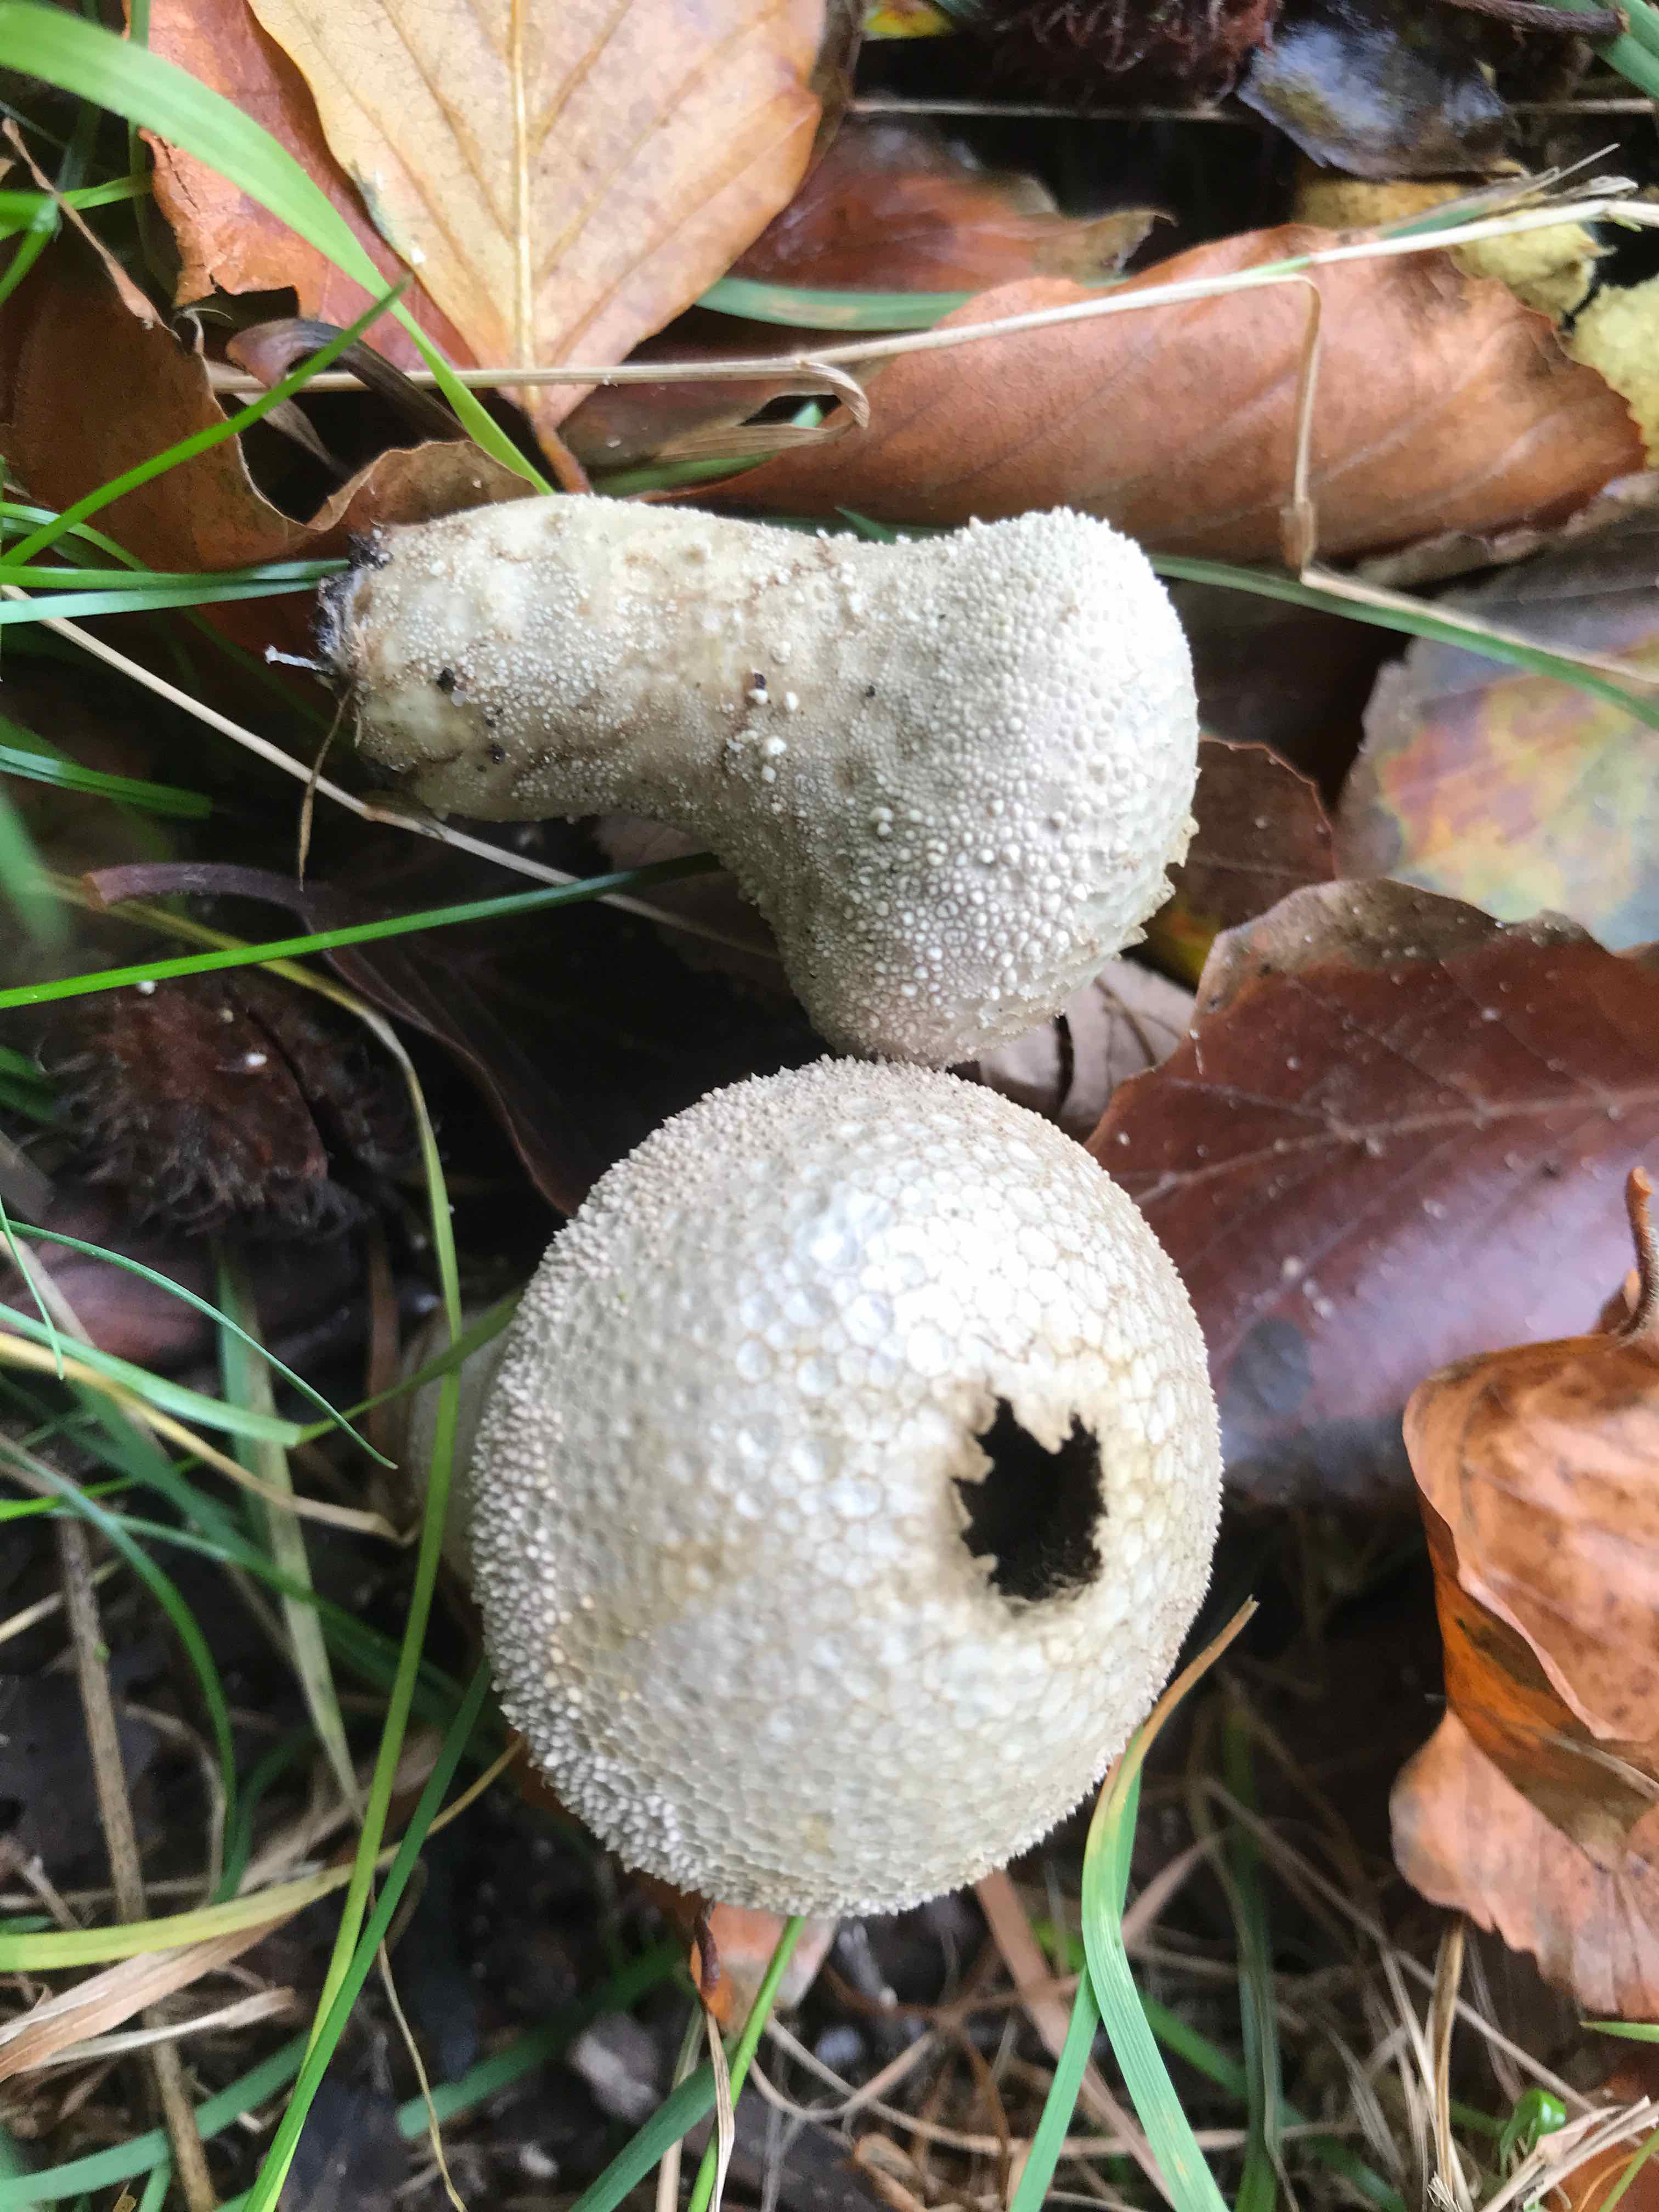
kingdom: Fungi
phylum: Basidiomycota
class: Agaricomycetes
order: Agaricales
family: Lycoperdaceae
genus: Lycoperdon
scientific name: Lycoperdon perlatum
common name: krystal-støvbold
